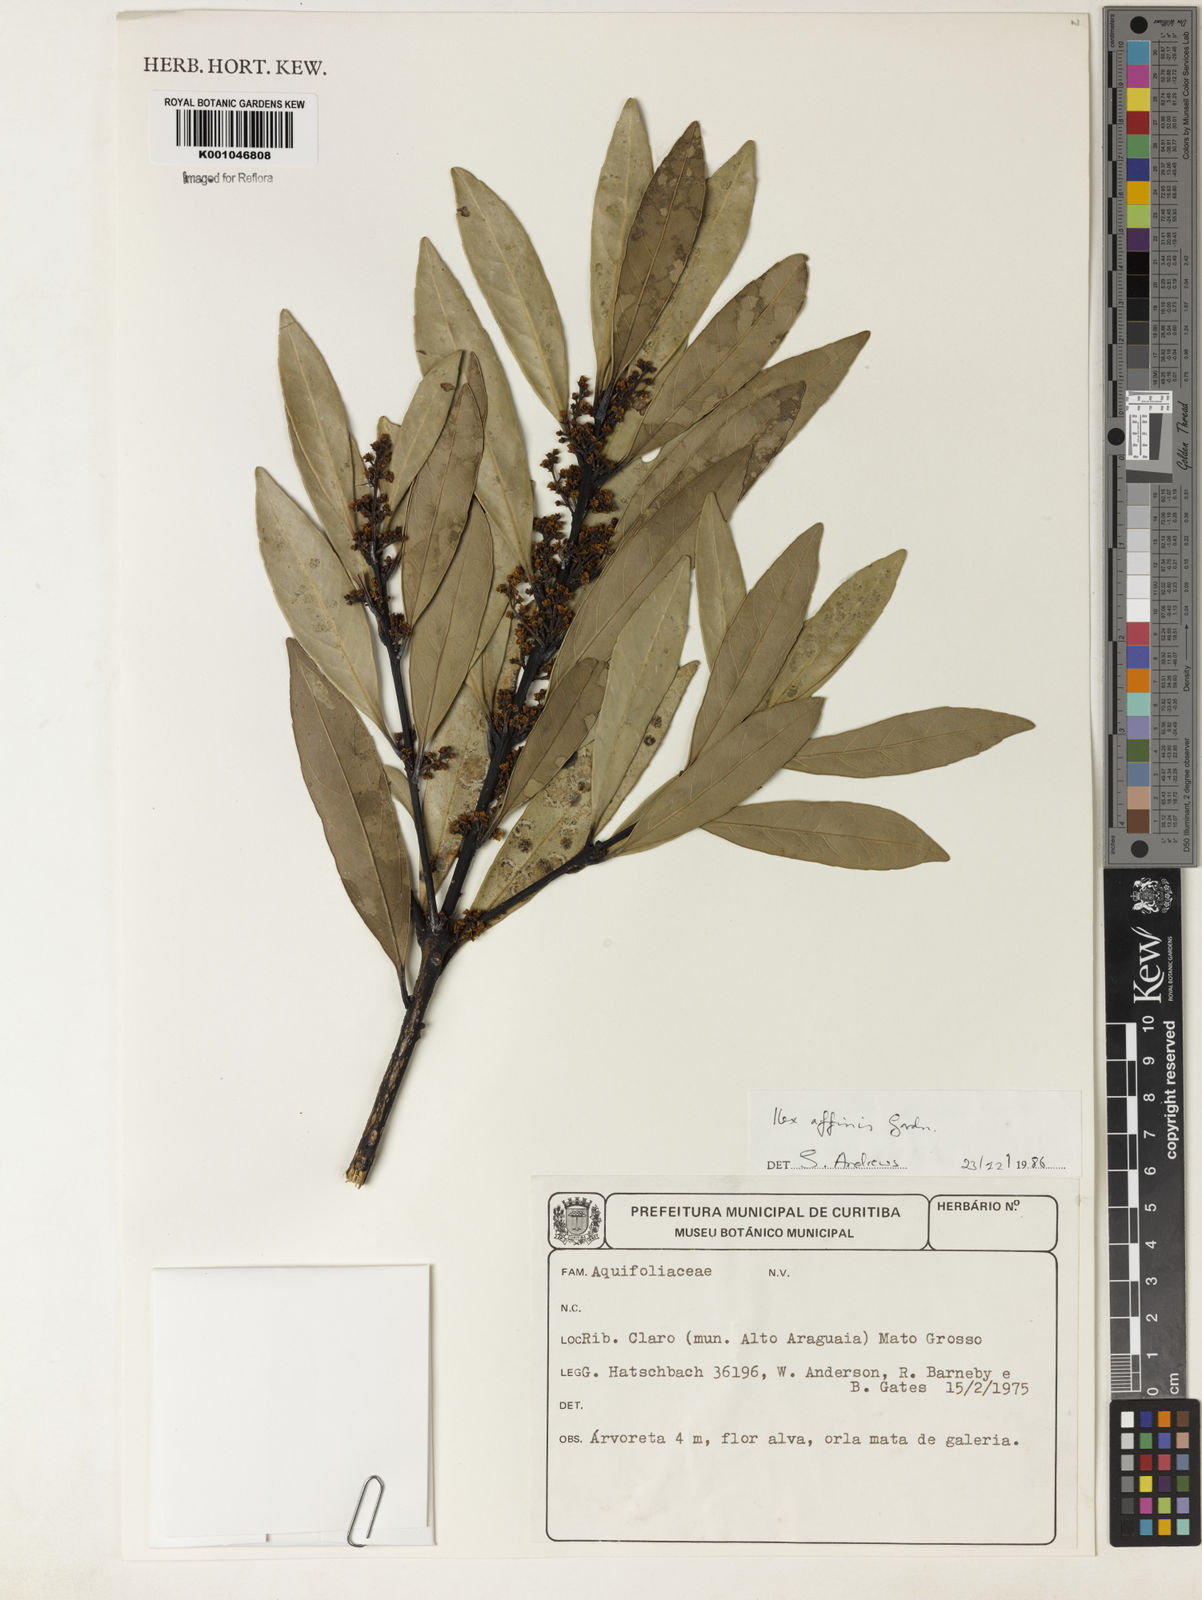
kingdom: Plantae
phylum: Tracheophyta
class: Magnoliopsida
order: Aquifoliales
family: Aquifoliaceae
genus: Ilex
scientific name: Ilex affinis
